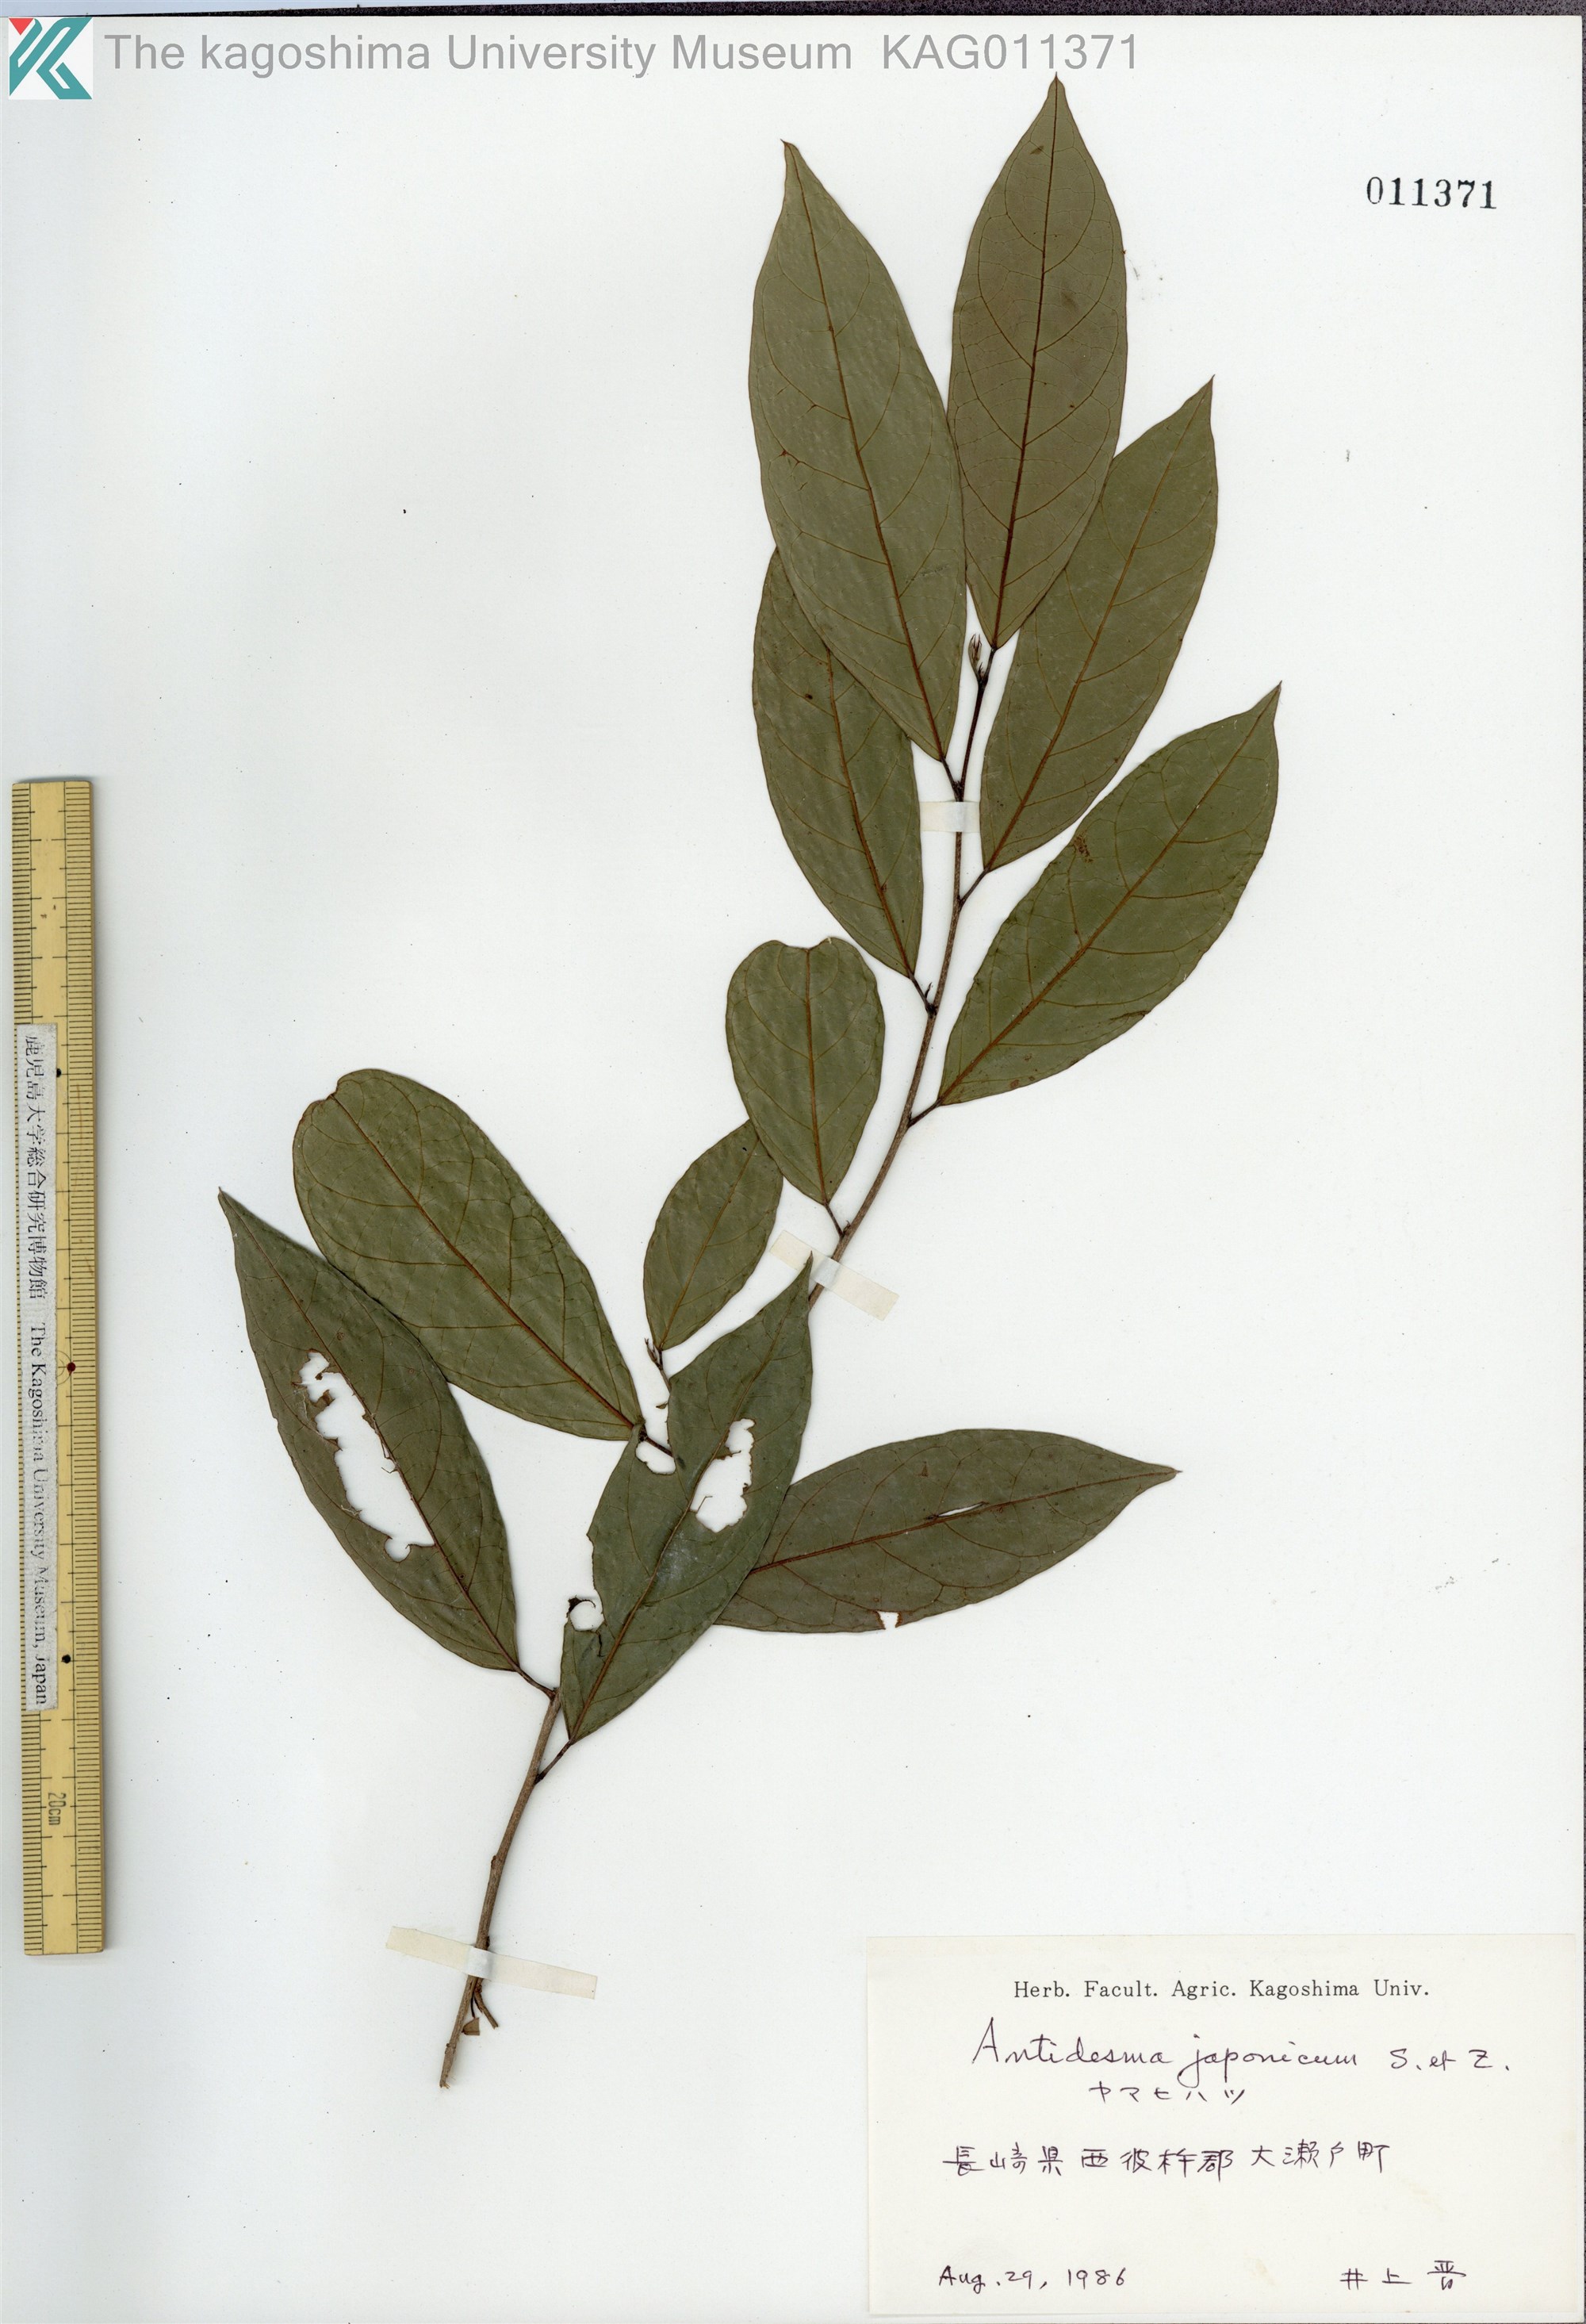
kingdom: Plantae
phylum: Tracheophyta
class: Magnoliopsida
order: Malpighiales
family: Phyllanthaceae
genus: Antidesma
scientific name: Antidesma japonicum
